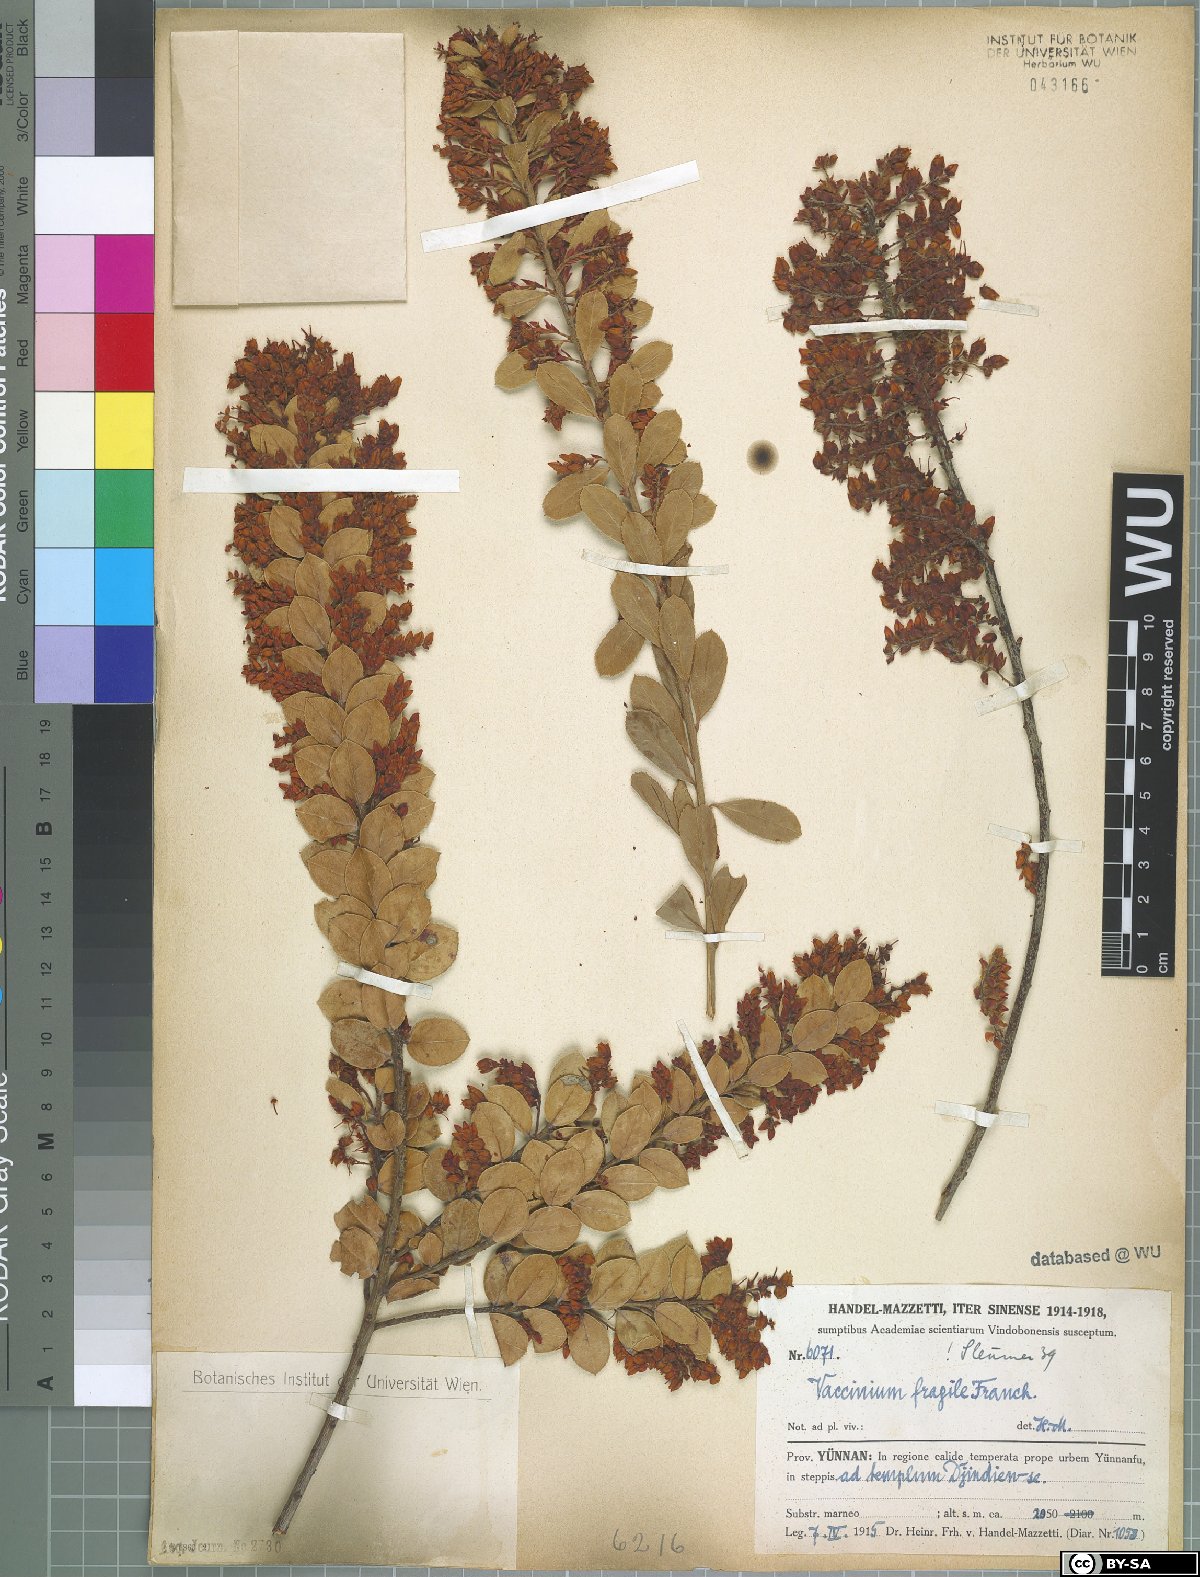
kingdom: Plantae
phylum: Tracheophyta
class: Magnoliopsida
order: Ericales
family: Ericaceae
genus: Vaccinium
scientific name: Vaccinium fragile
